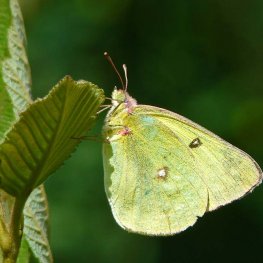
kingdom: Animalia
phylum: Arthropoda
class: Insecta
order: Lepidoptera
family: Pieridae
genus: Colias
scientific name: Colias philodice
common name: Clouded Sulphur
